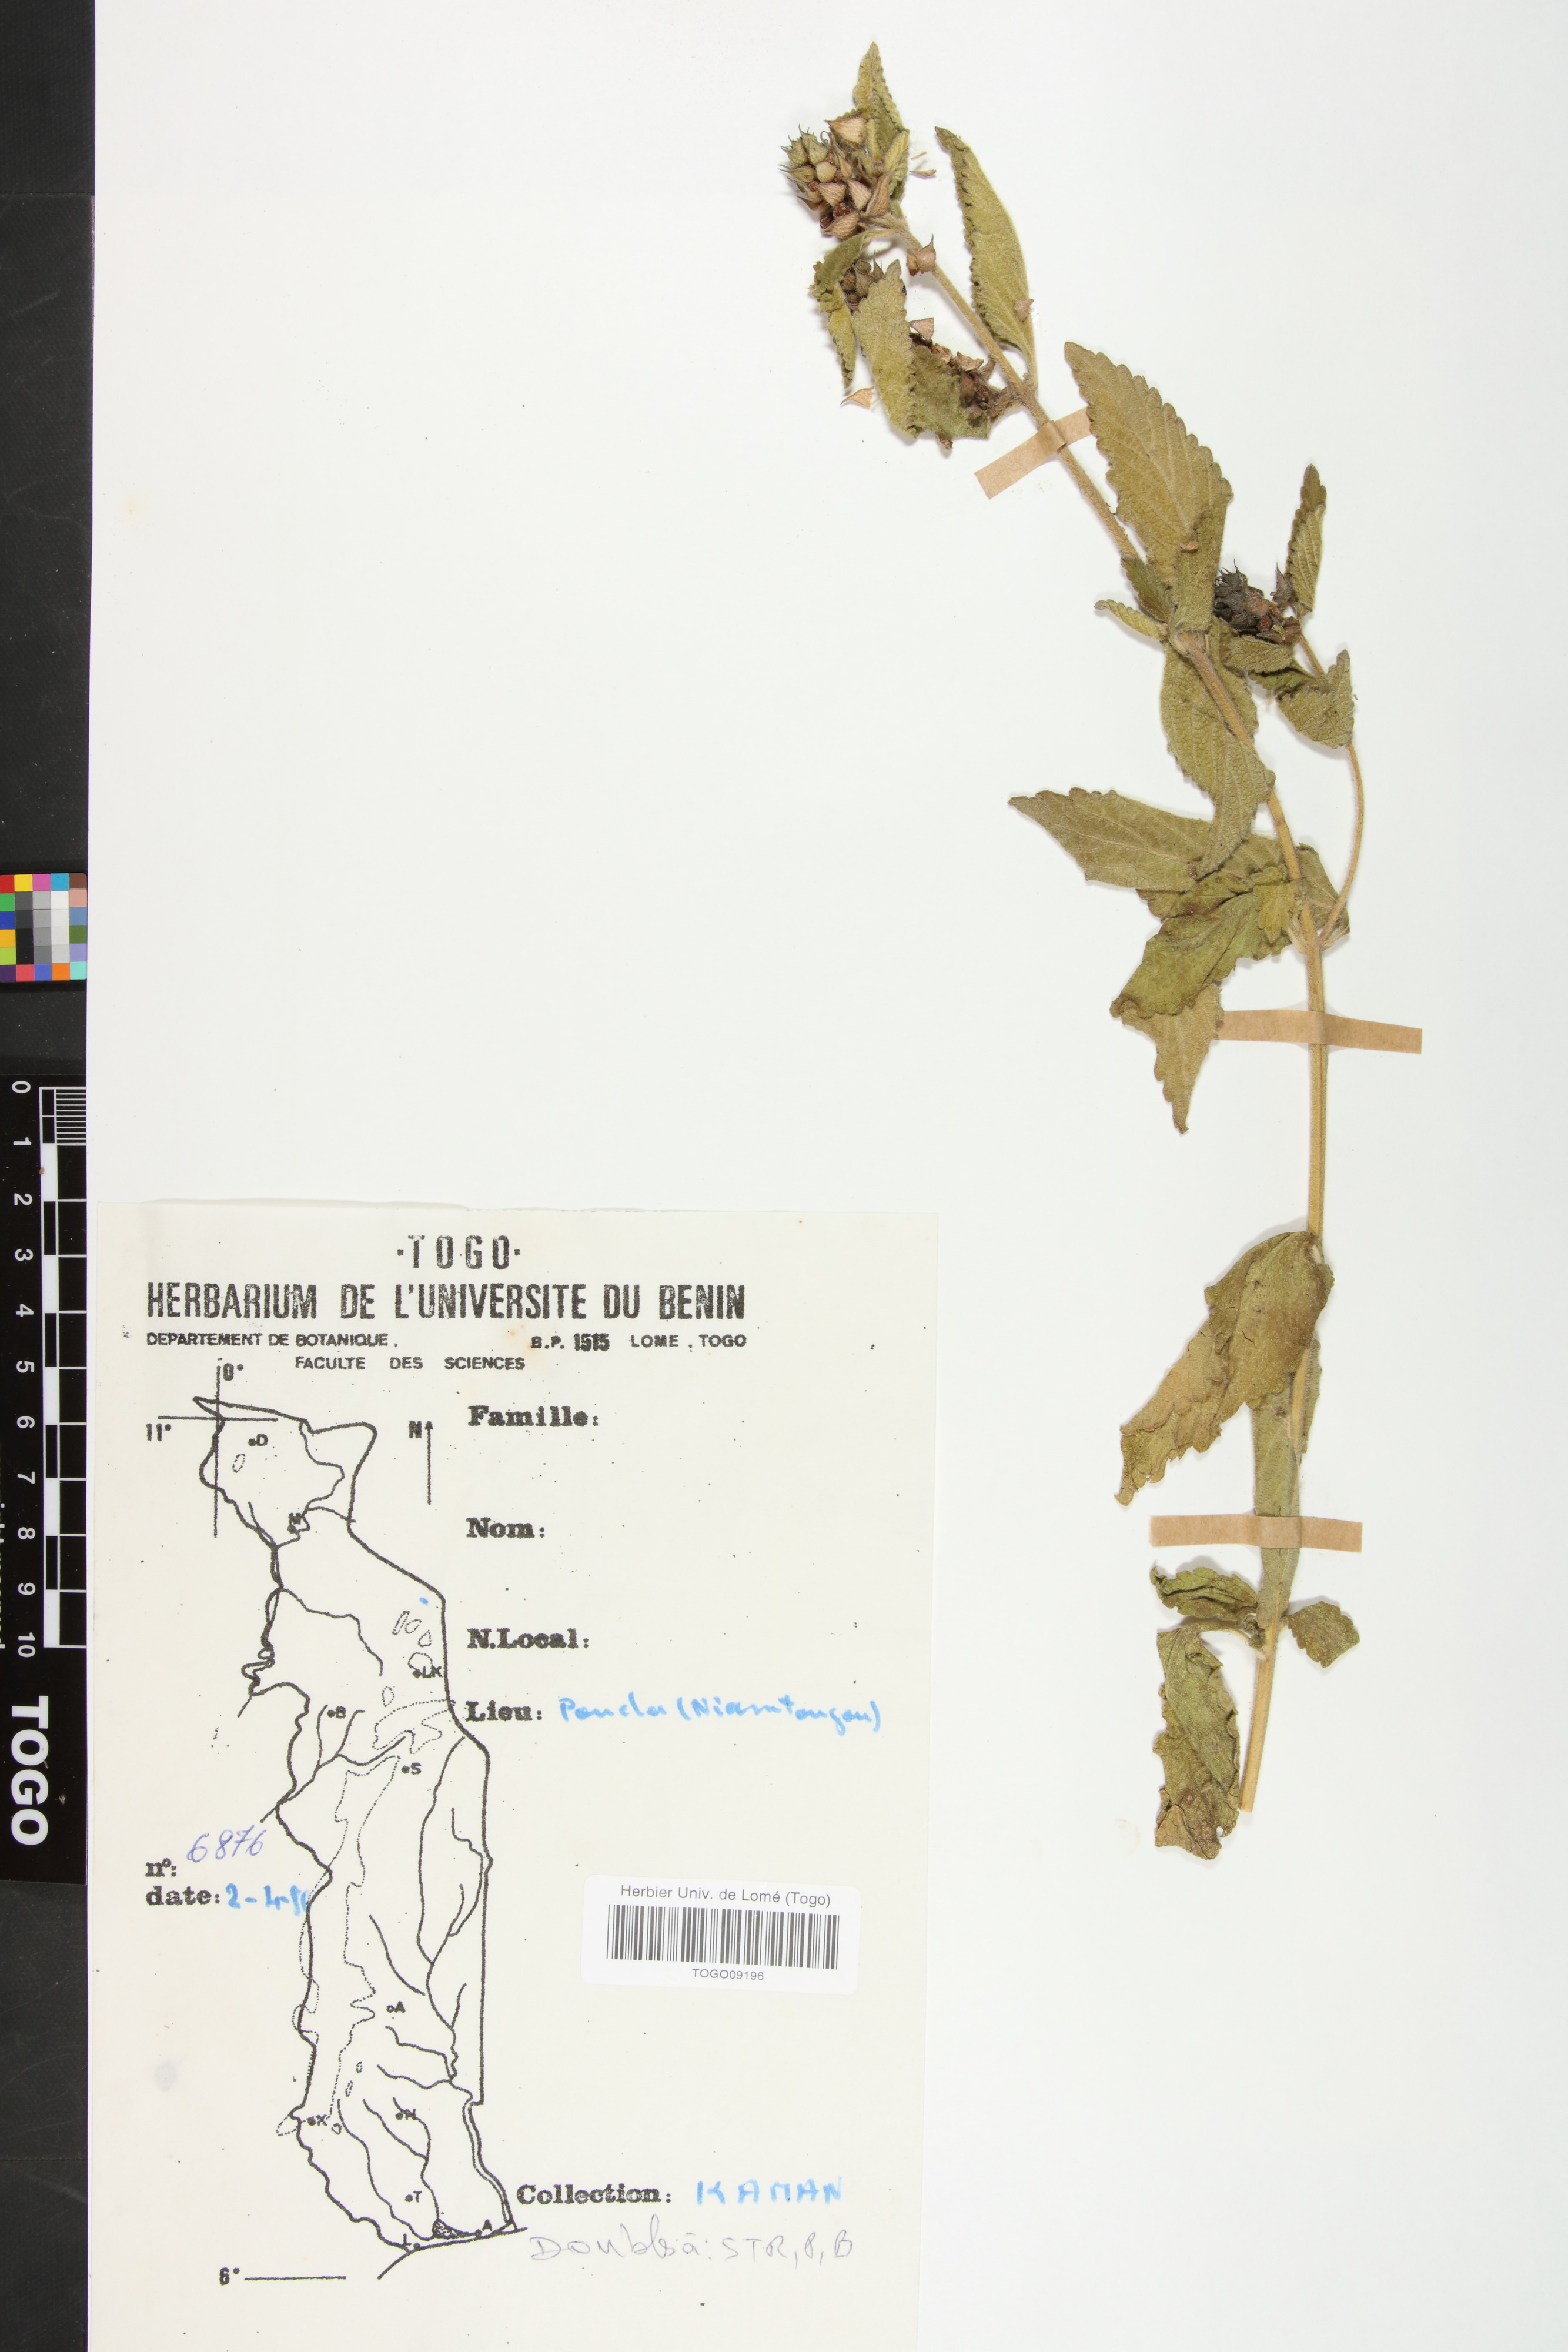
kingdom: Plantae
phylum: Tracheophyta
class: Magnoliopsida
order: Lamiales
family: Verbenaceae
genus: Lantana
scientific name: Lantana ukambensis
